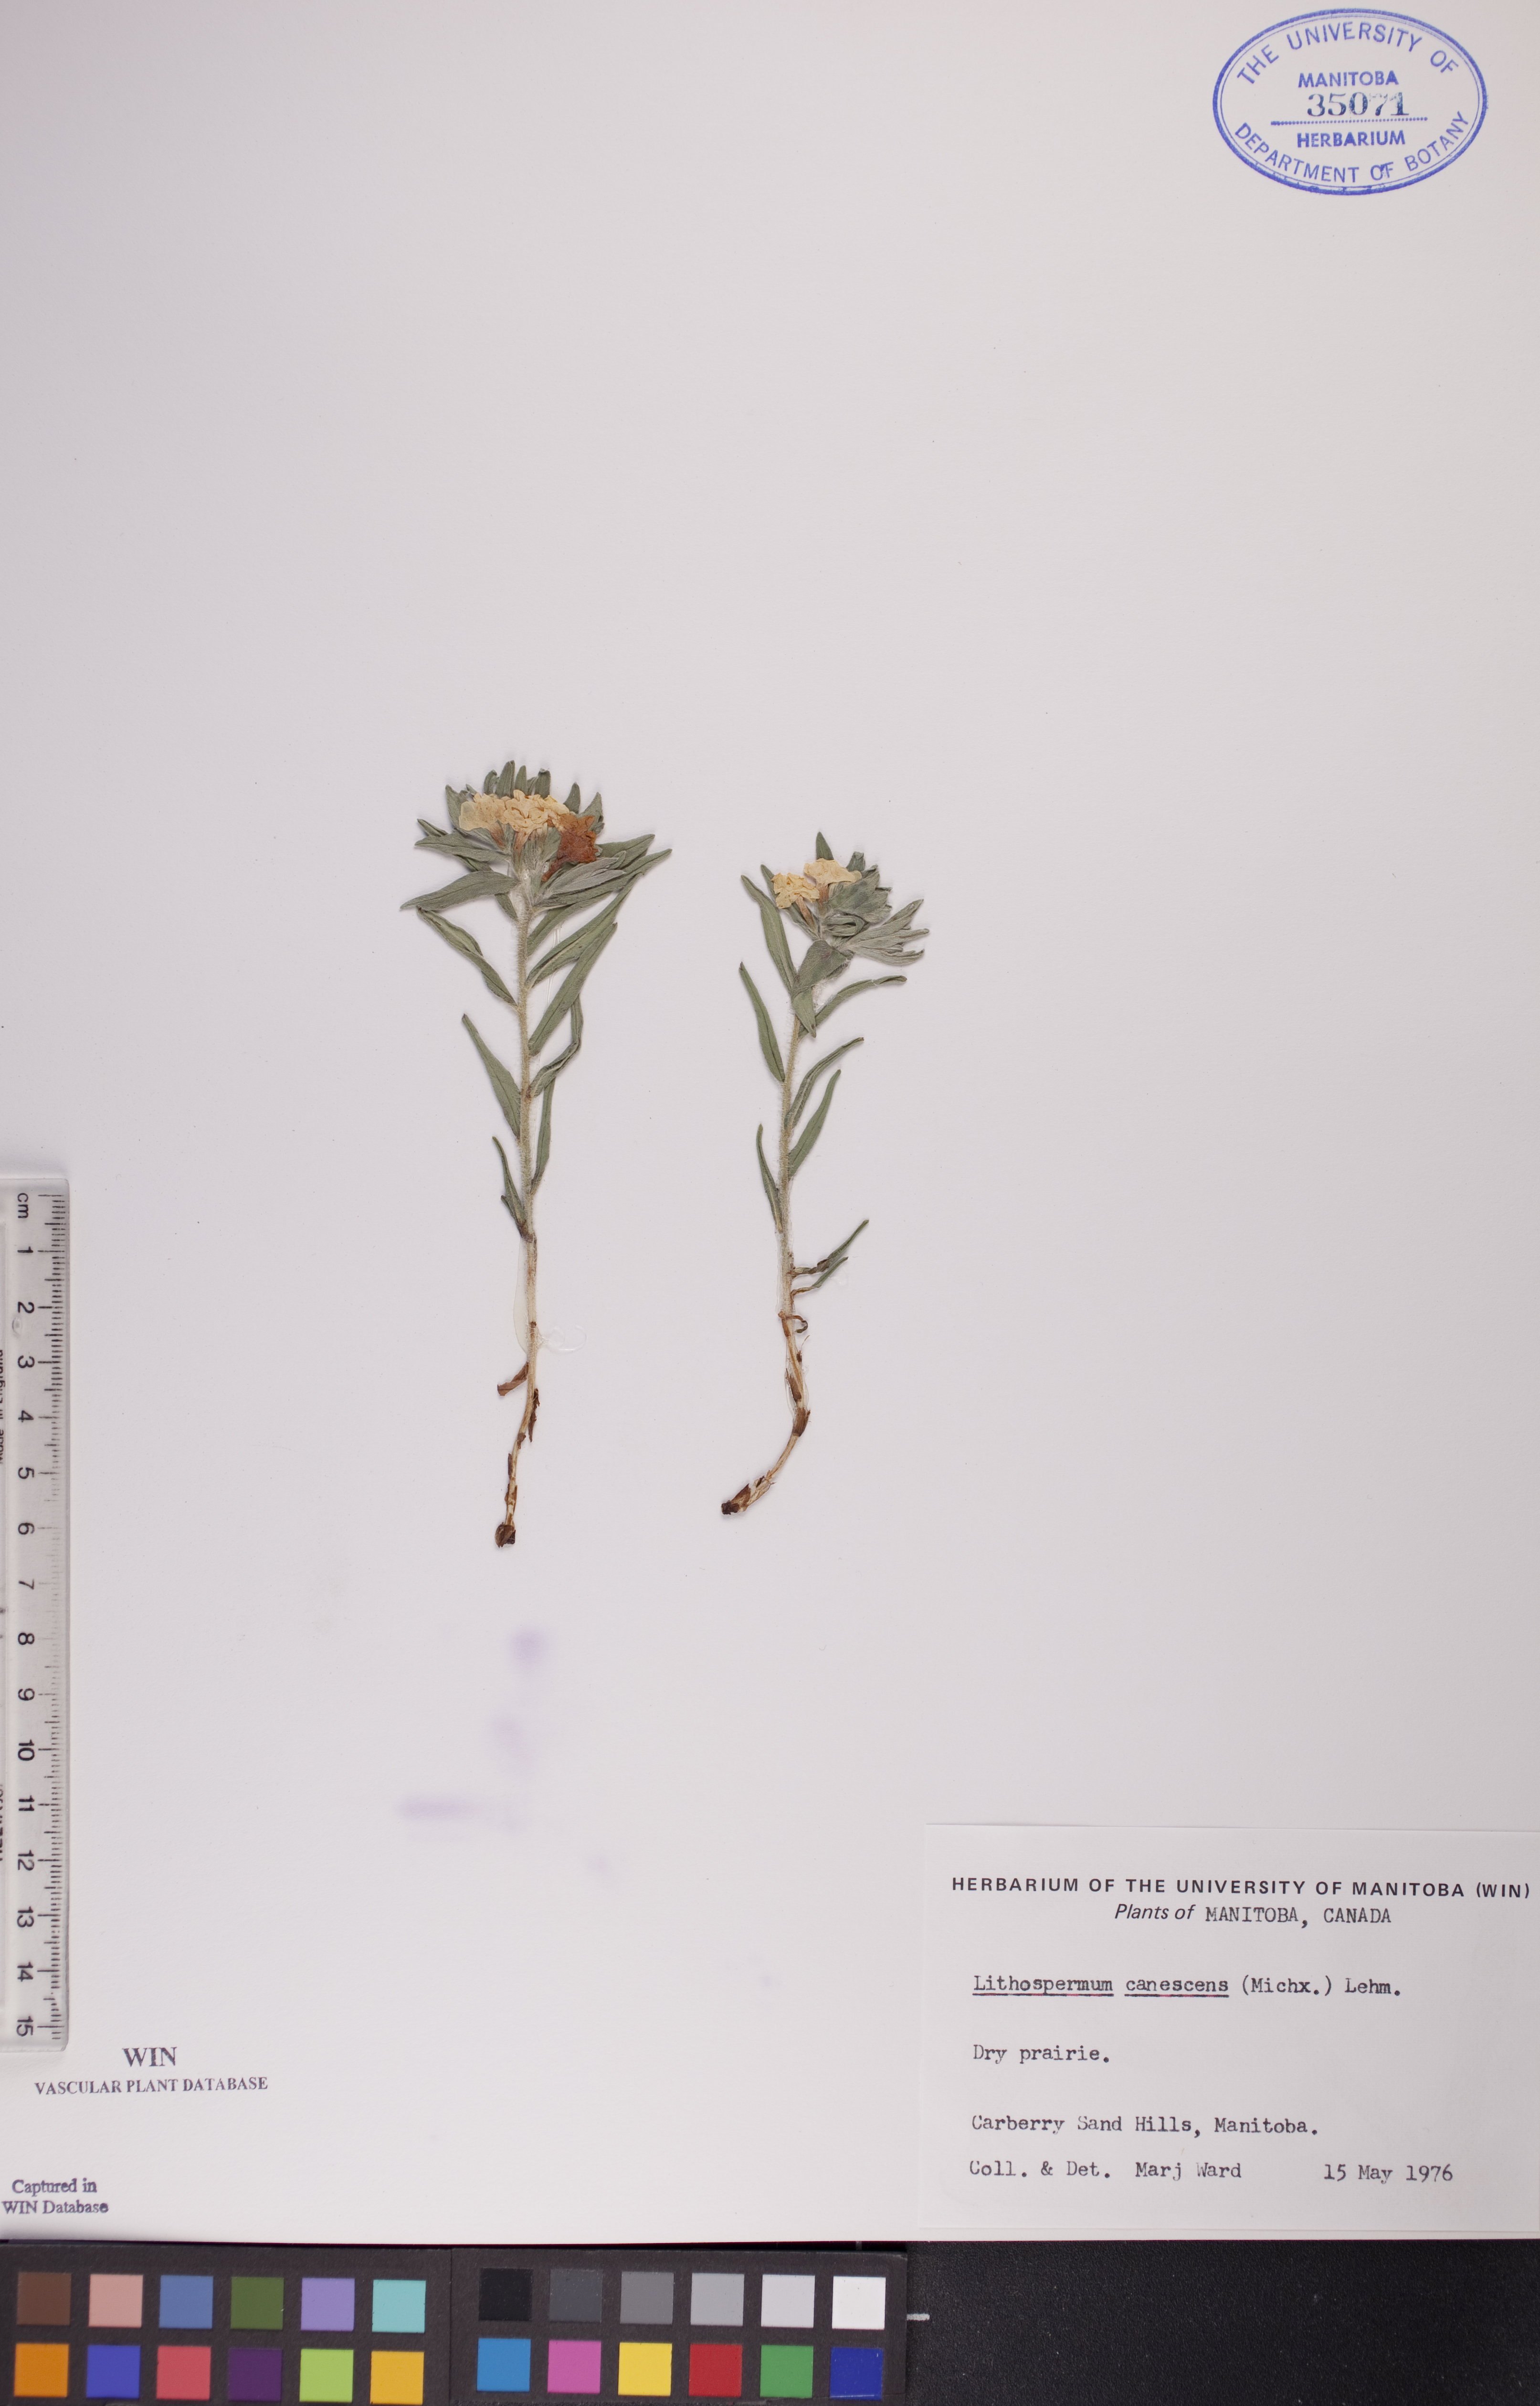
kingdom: Plantae
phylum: Tracheophyta
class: Magnoliopsida
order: Boraginales
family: Boraginaceae
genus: Lithospermum
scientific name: Lithospermum canescens
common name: Hoary puccoon
